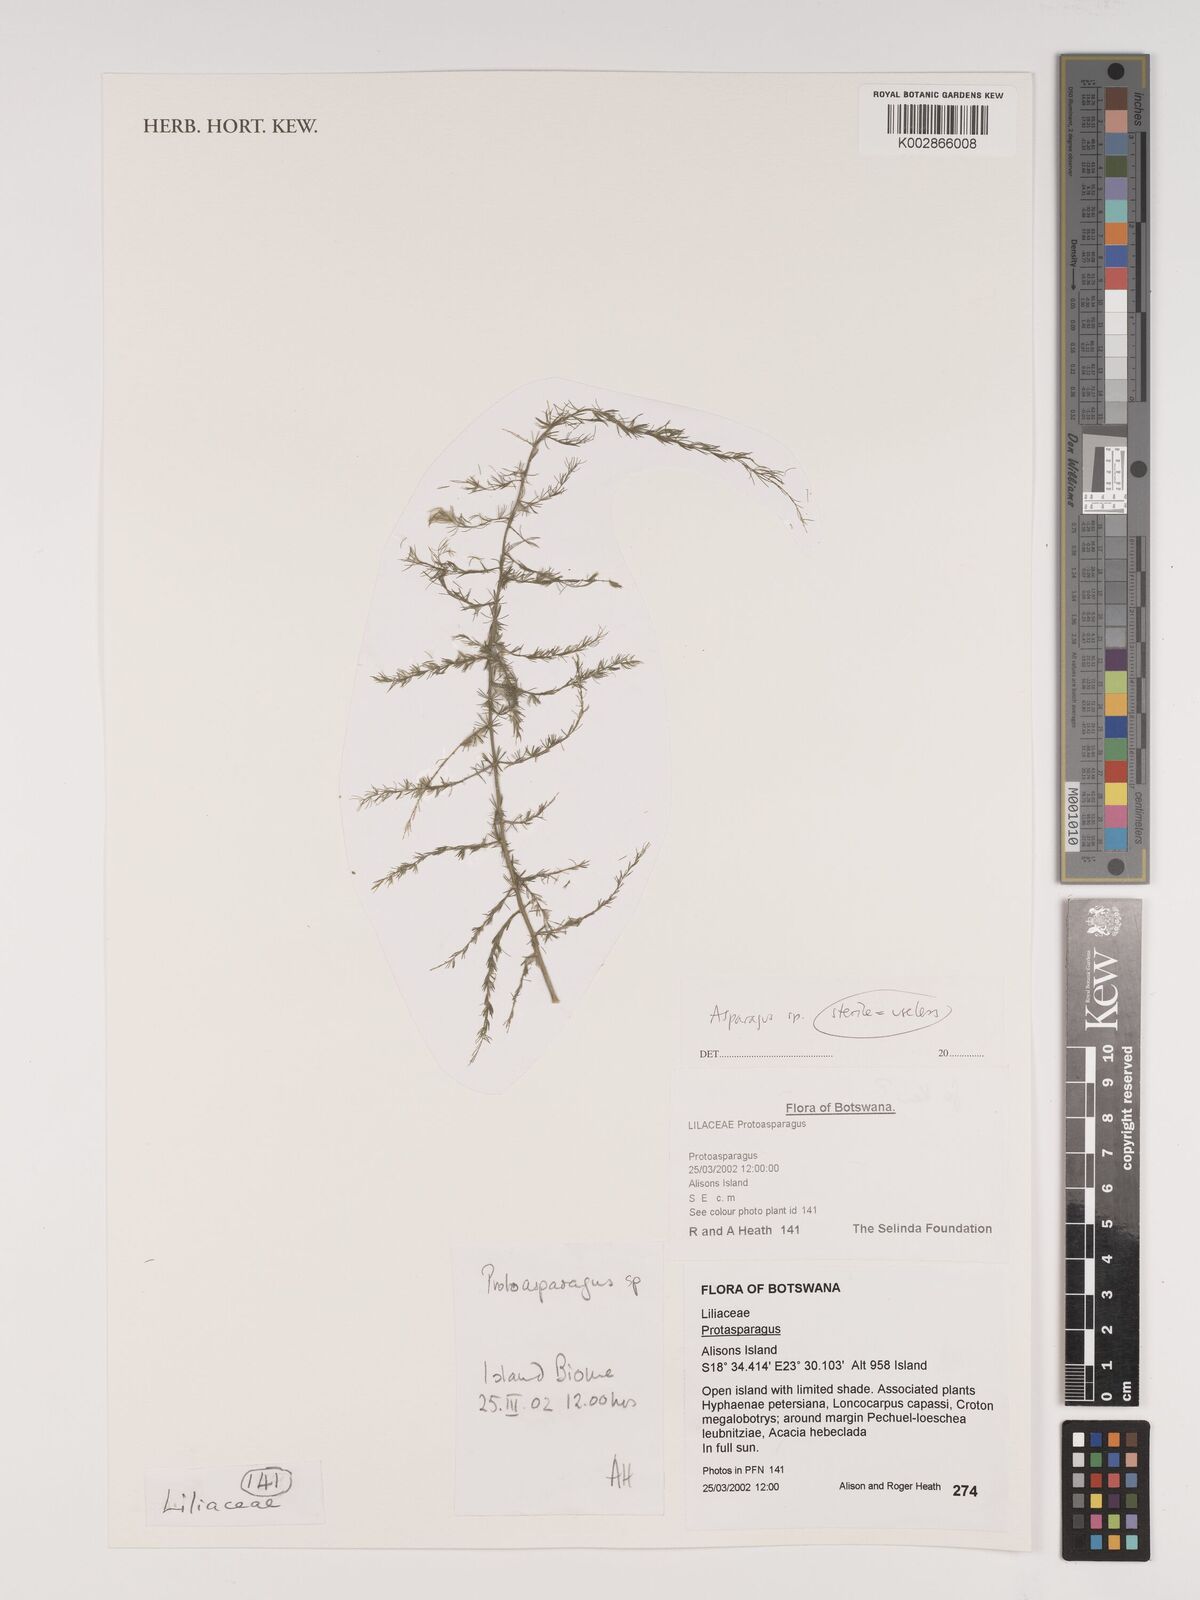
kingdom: Plantae
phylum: Tracheophyta
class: Liliopsida
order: Asparagales
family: Asparagaceae
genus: Asparagus
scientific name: Asparagus
